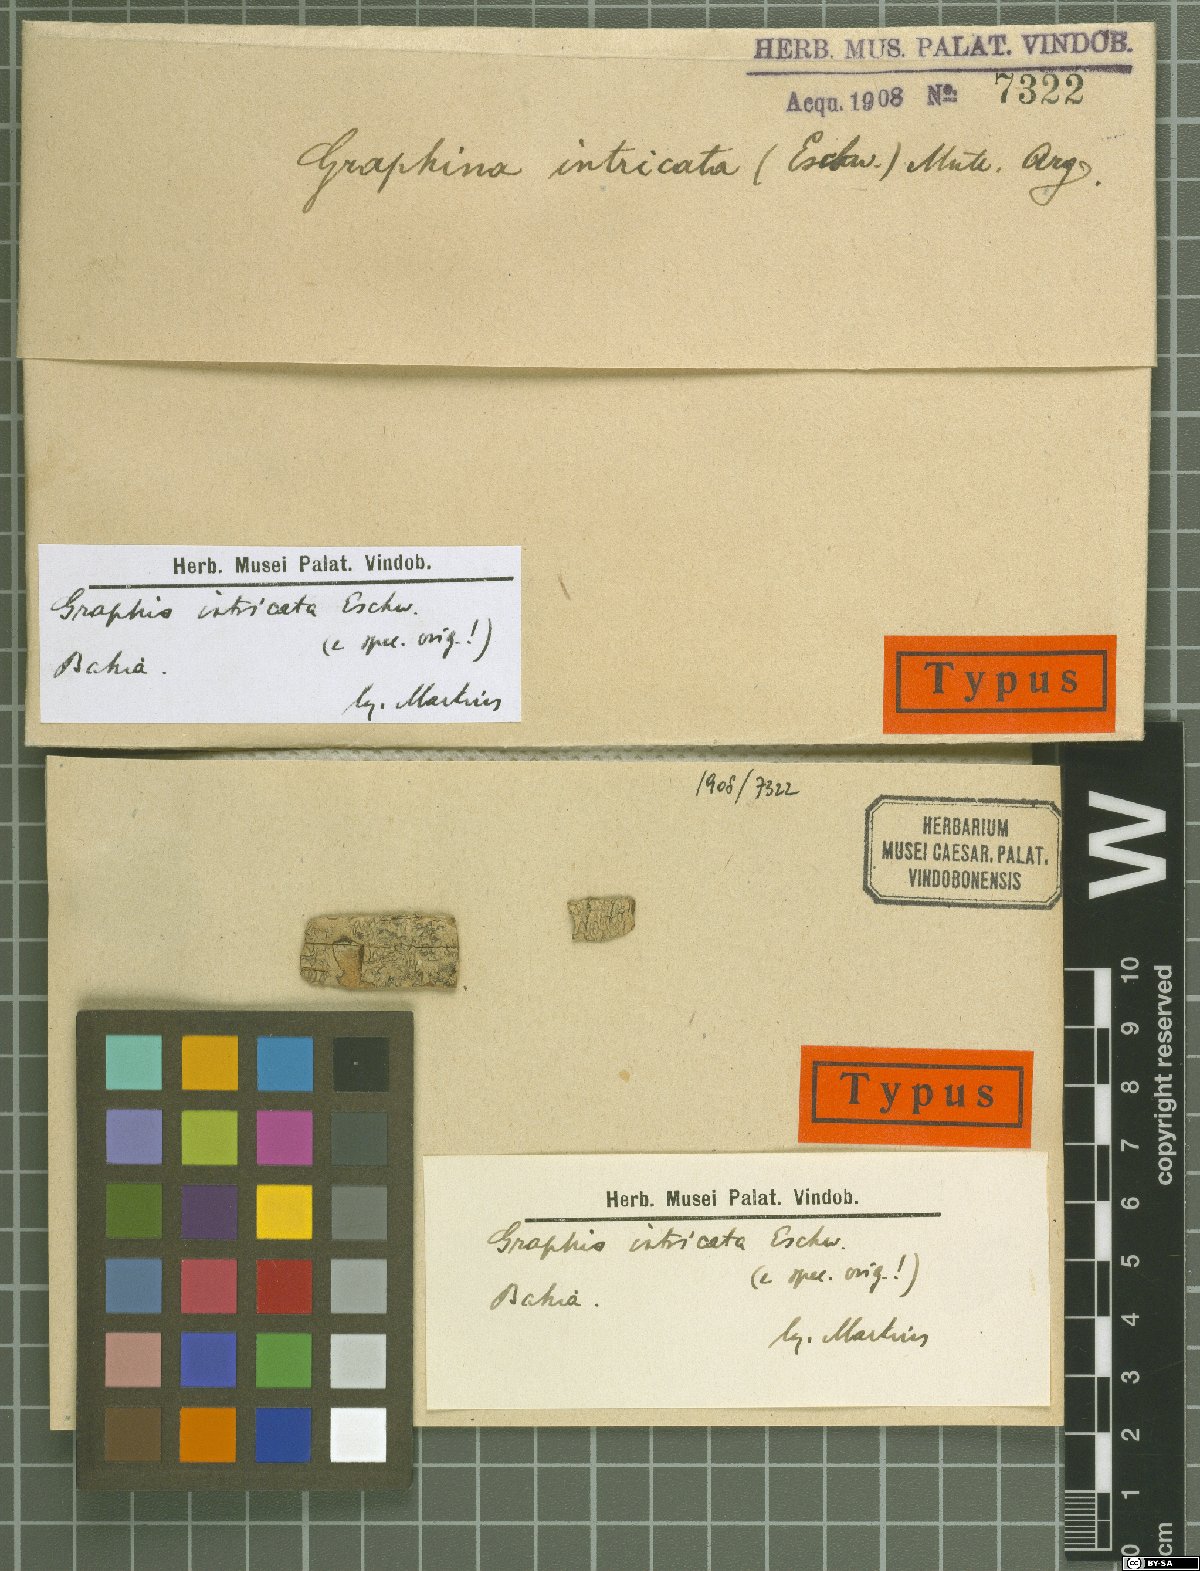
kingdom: Fungi
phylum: Ascomycota
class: Lecanoromycetes
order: Ostropales
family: Graphidaceae
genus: Graphina
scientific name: Graphina intricata
